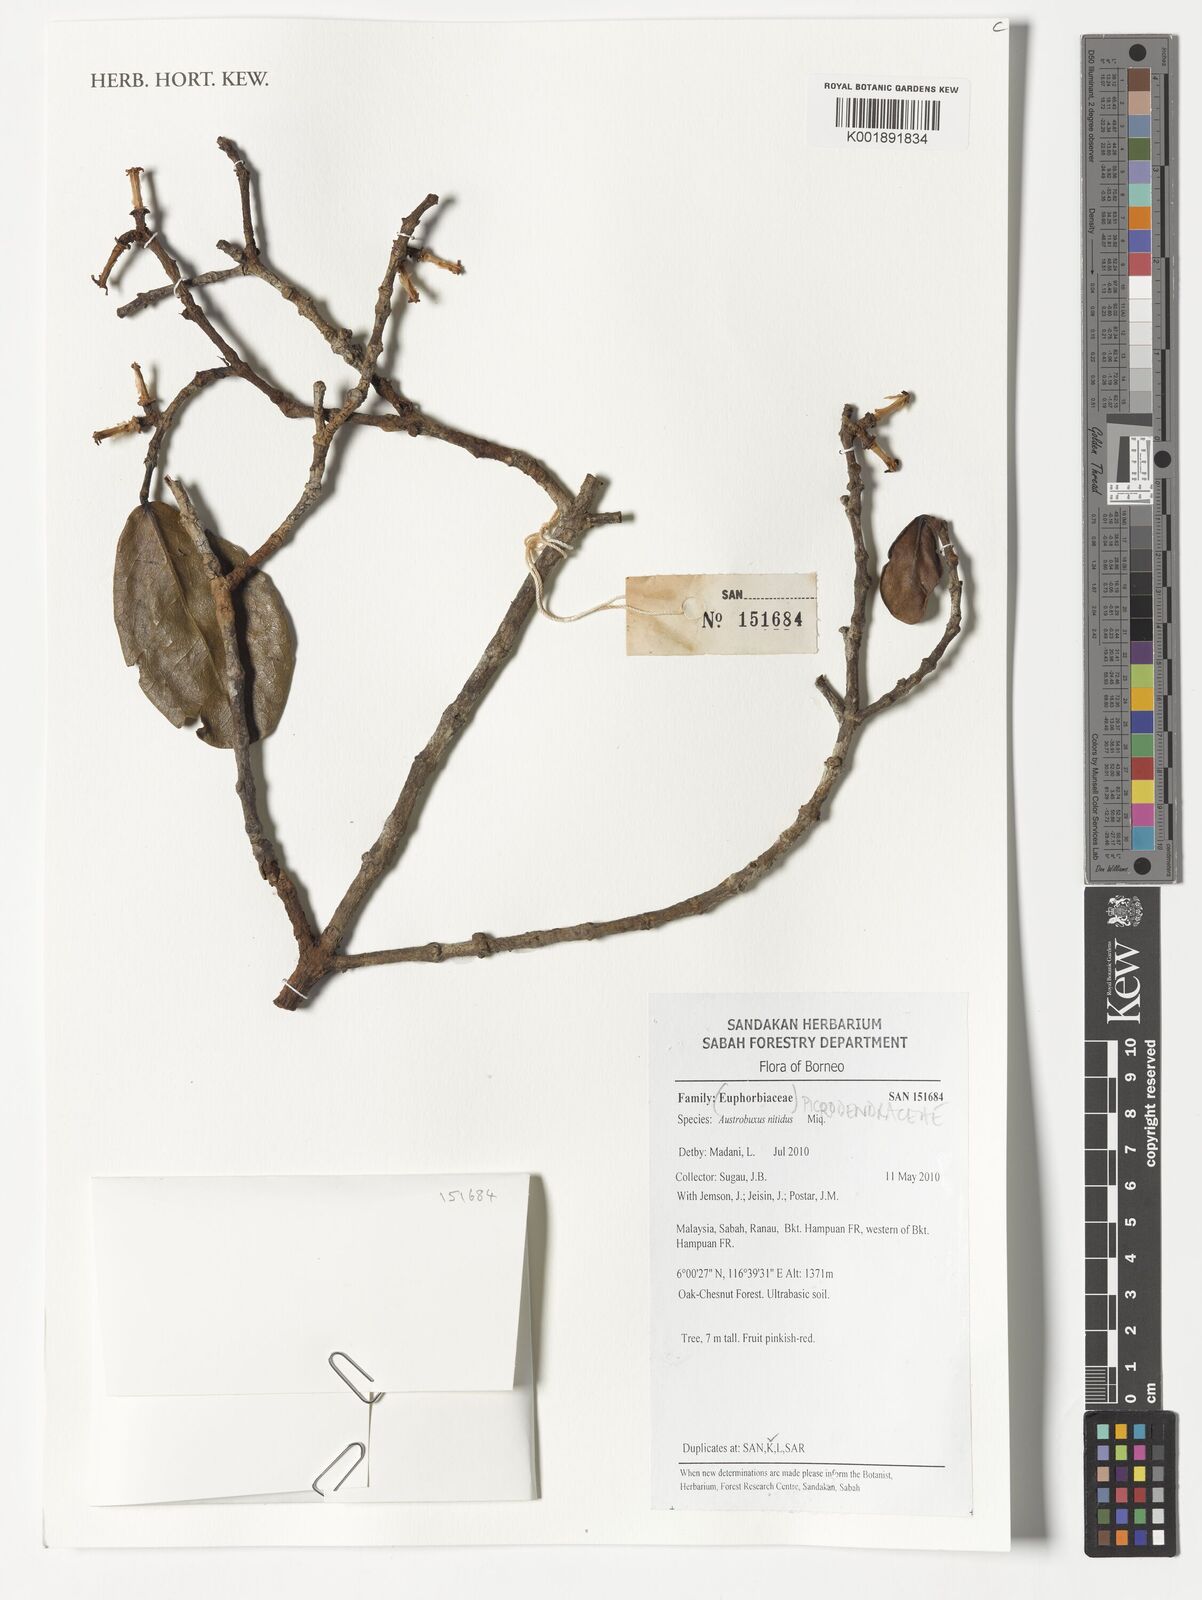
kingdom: Plantae
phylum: Tracheophyta
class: Magnoliopsida
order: Malpighiales
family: Picrodendraceae
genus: Austrobuxus
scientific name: Austrobuxus nitidus
